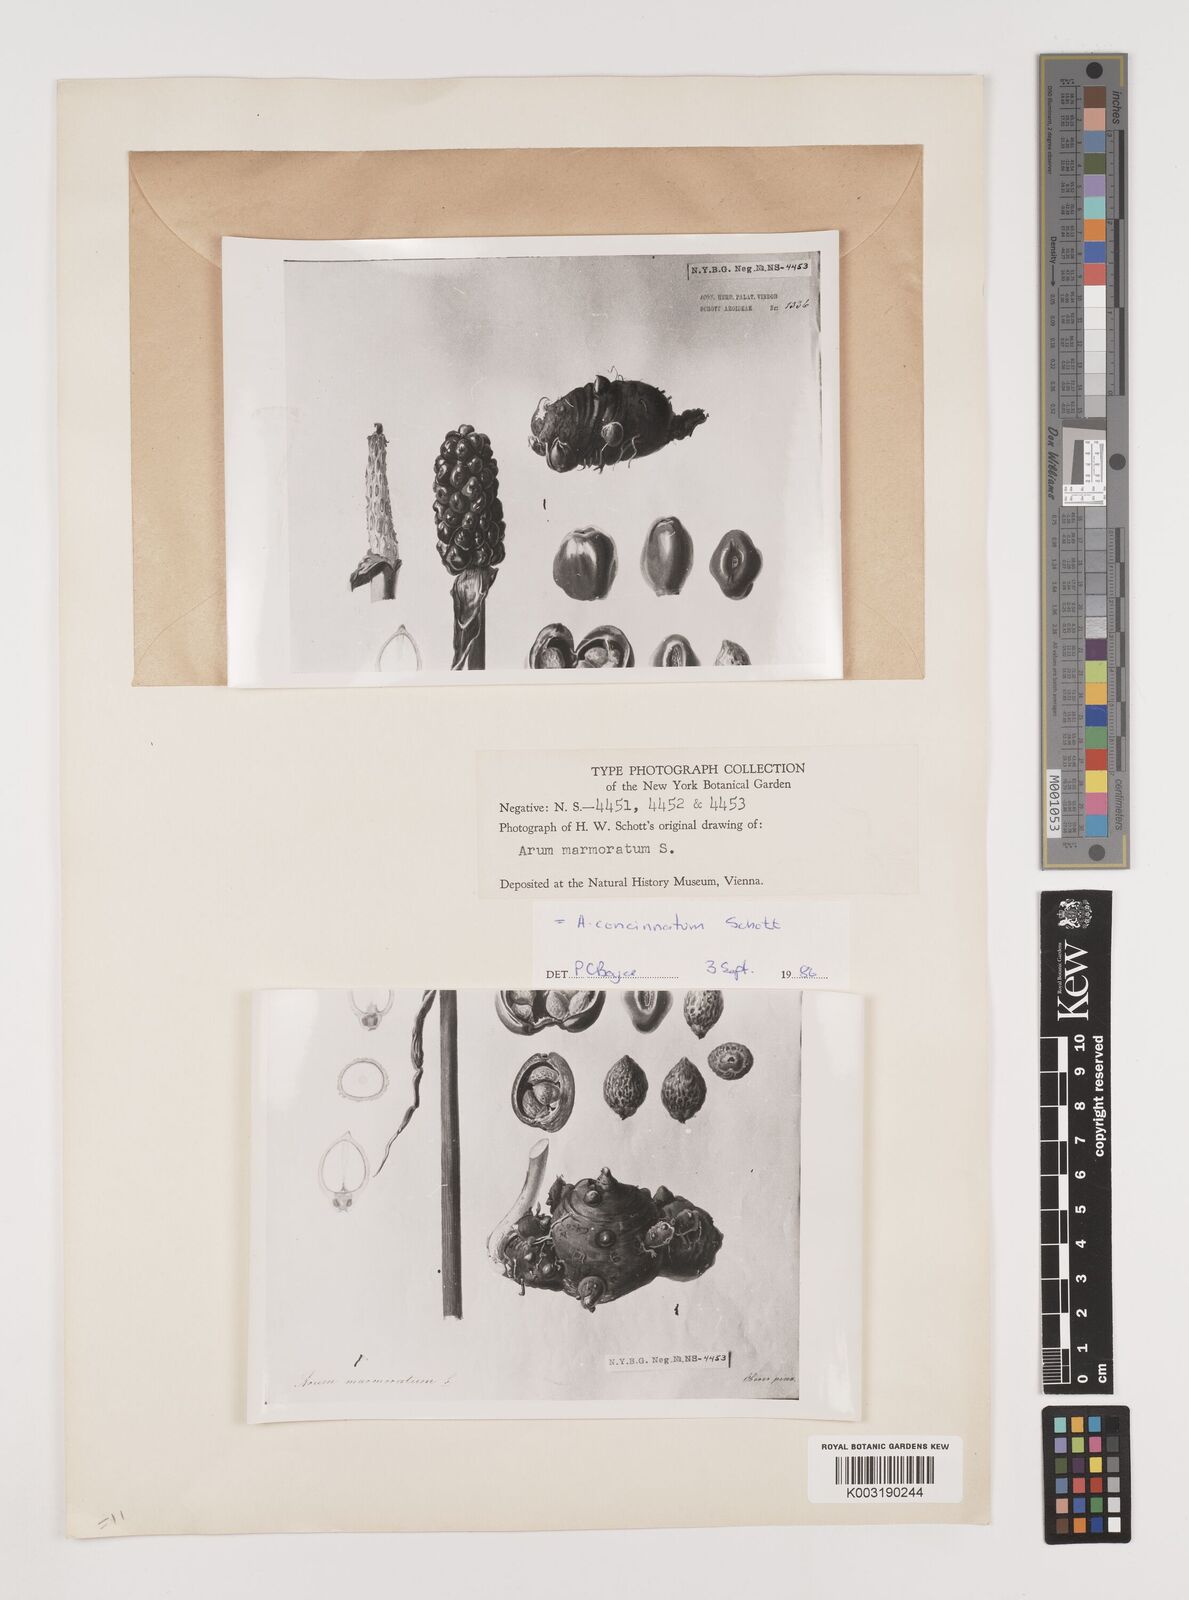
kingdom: Plantae
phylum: Tracheophyta
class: Liliopsida
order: Alismatales
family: Araceae
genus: Arum
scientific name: Arum concinnatum
